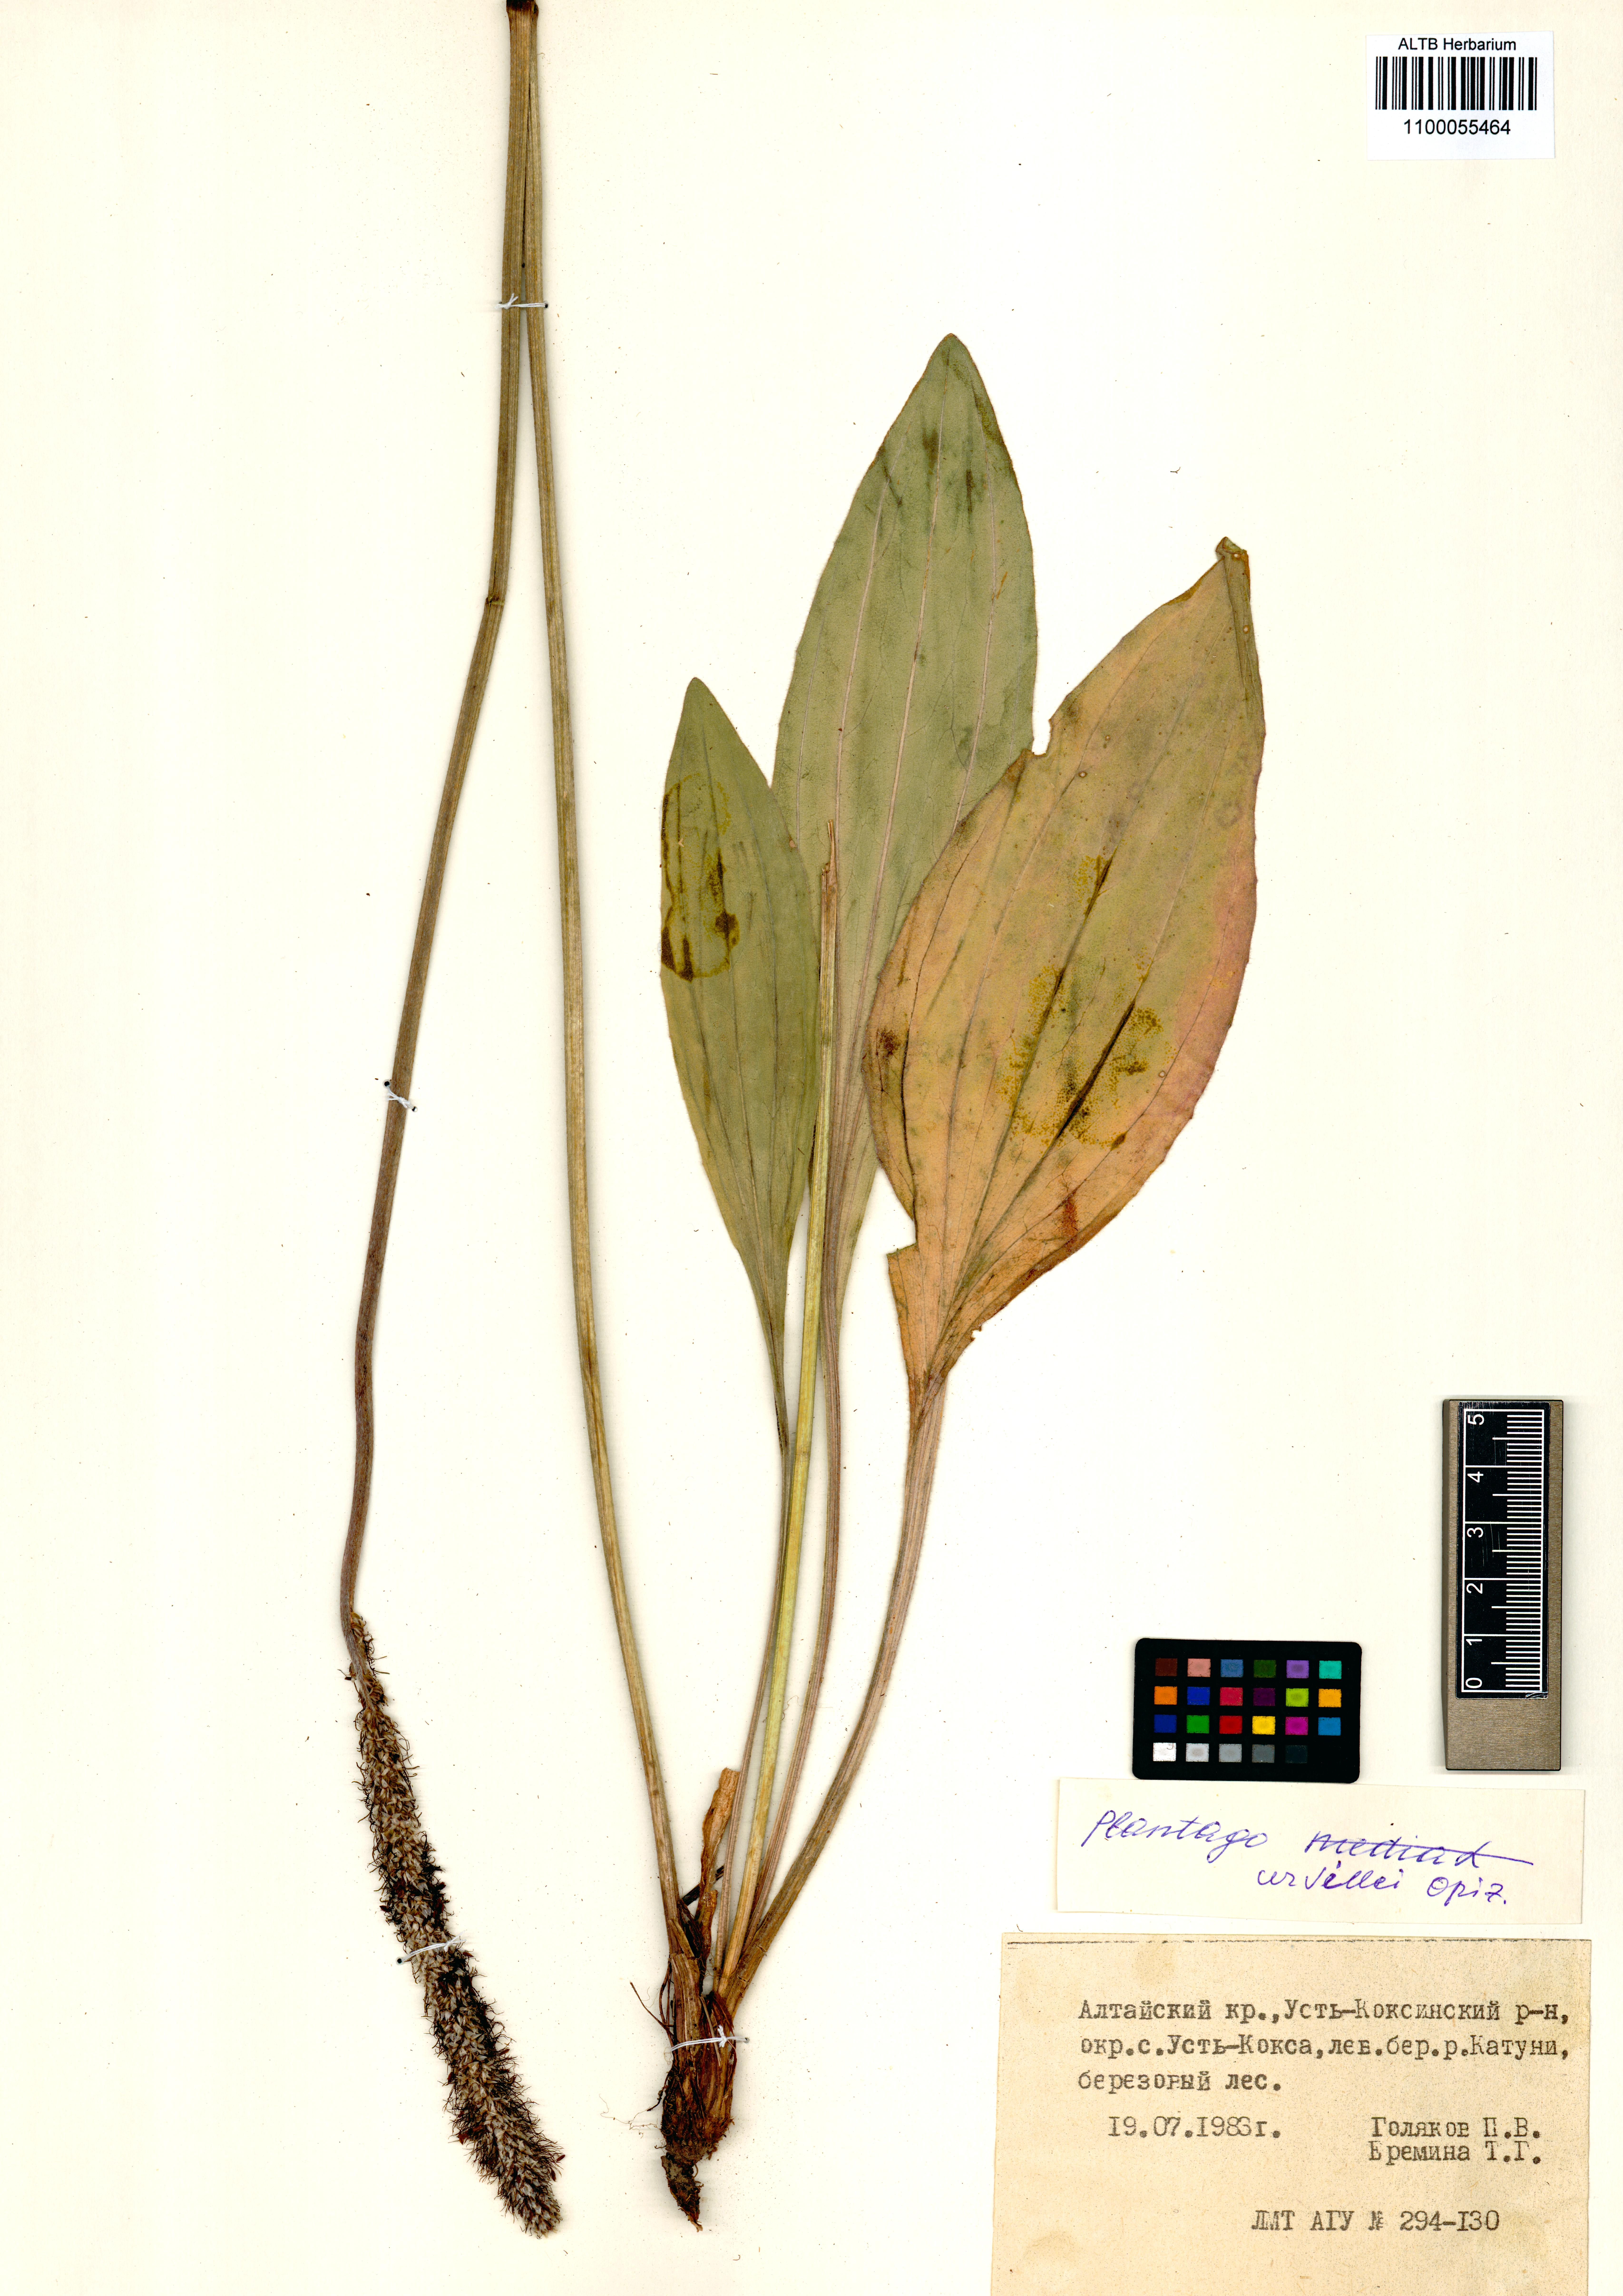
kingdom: Plantae
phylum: Tracheophyta
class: Magnoliopsida
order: Lamiales
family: Plantaginaceae
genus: Plantago
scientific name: Plantago urvillei
